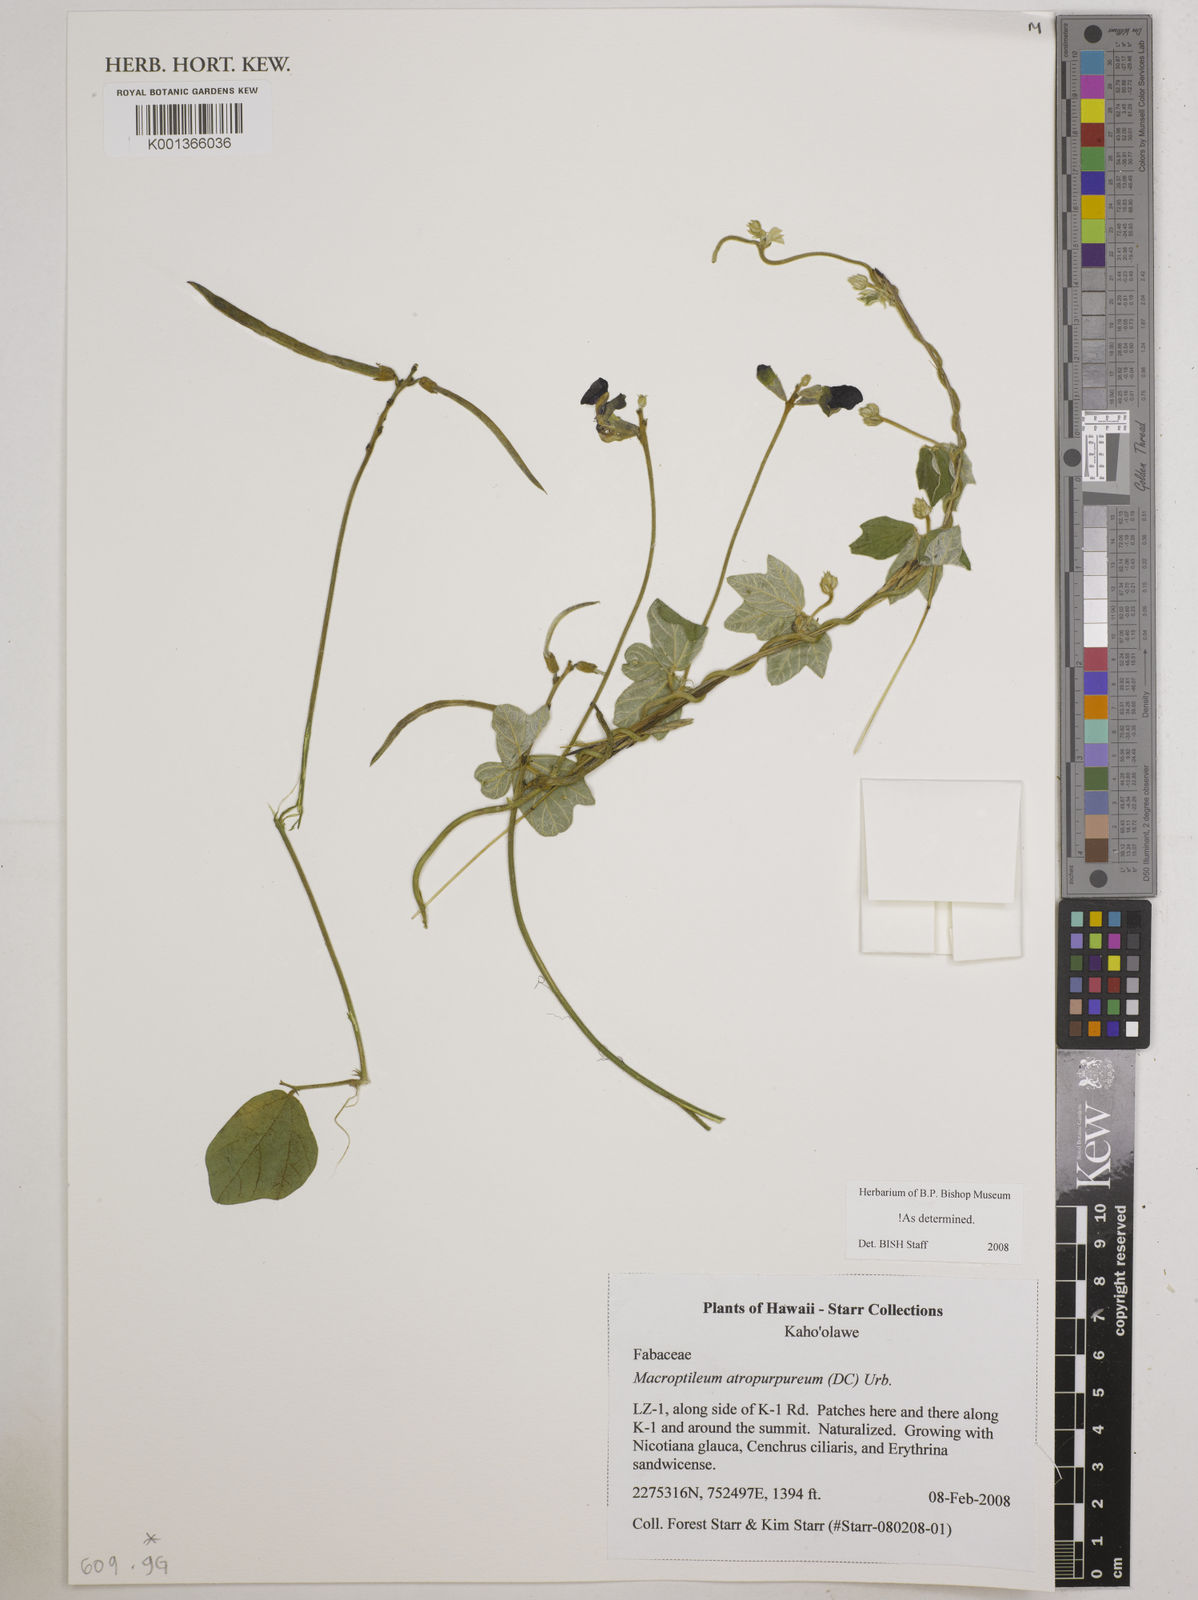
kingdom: Plantae
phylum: Tracheophyta
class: Magnoliopsida
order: Fabales
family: Fabaceae
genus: Macroptilium
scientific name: Macroptilium atropurpureum
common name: Purple bushbean
